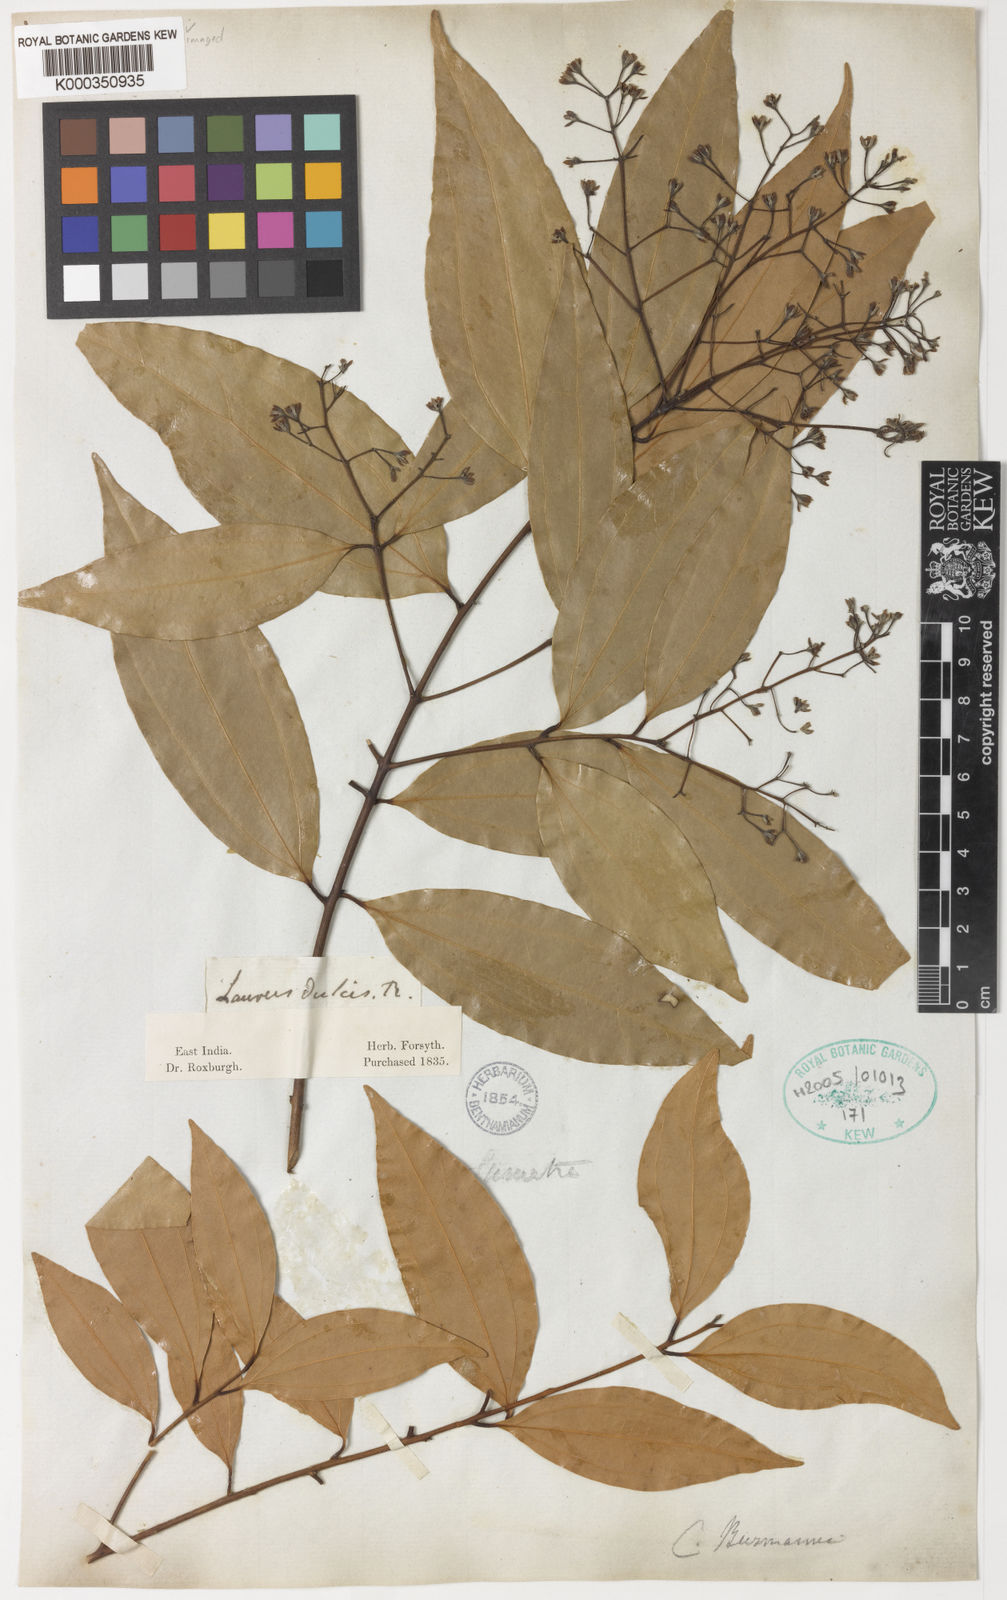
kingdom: Plantae
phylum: Tracheophyta
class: Magnoliopsida
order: Laurales
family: Lauraceae
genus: Cinnamomum
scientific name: Cinnamomum burmanni
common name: Padang cassia
